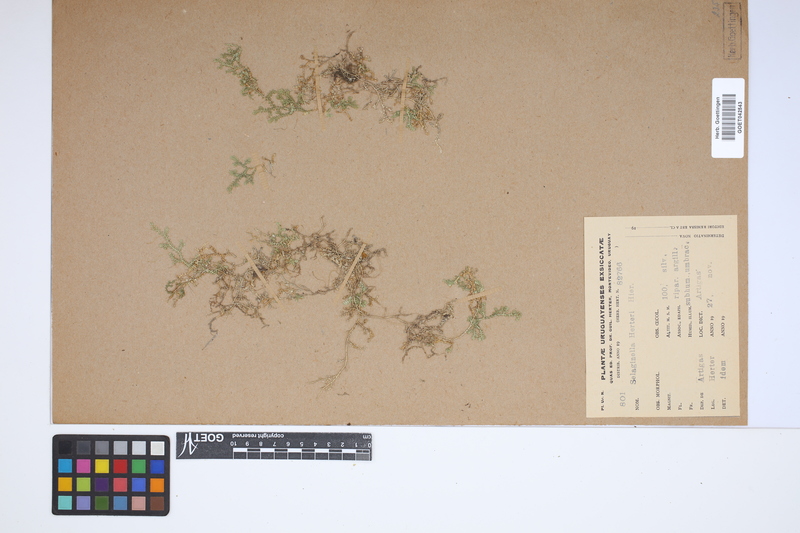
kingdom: Plantae
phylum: Tracheophyta
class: Lycopodiopsida
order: Selaginellales
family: Selaginellaceae
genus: Selaginella
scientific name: Selaginella marginata
